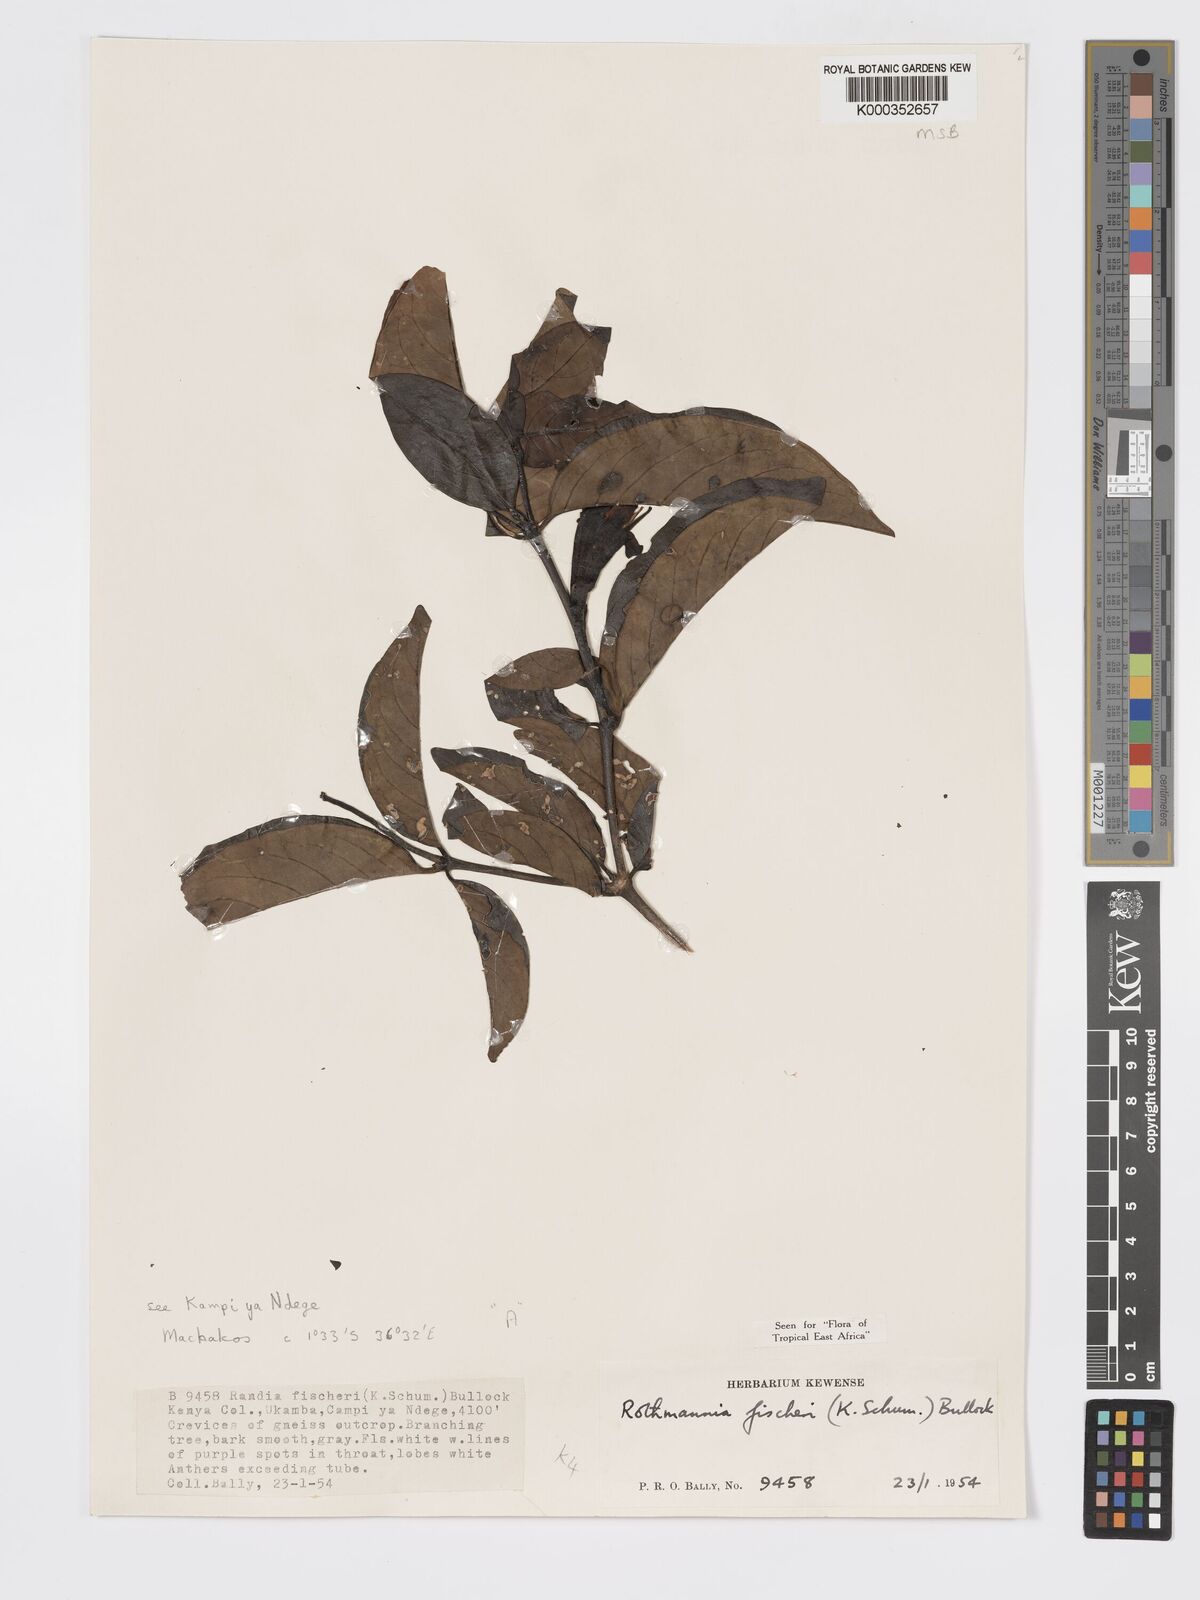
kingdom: Plantae
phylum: Tracheophyta
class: Magnoliopsida
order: Gentianales
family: Rubiaceae
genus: Rothmannia
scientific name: Rothmannia fischeri
